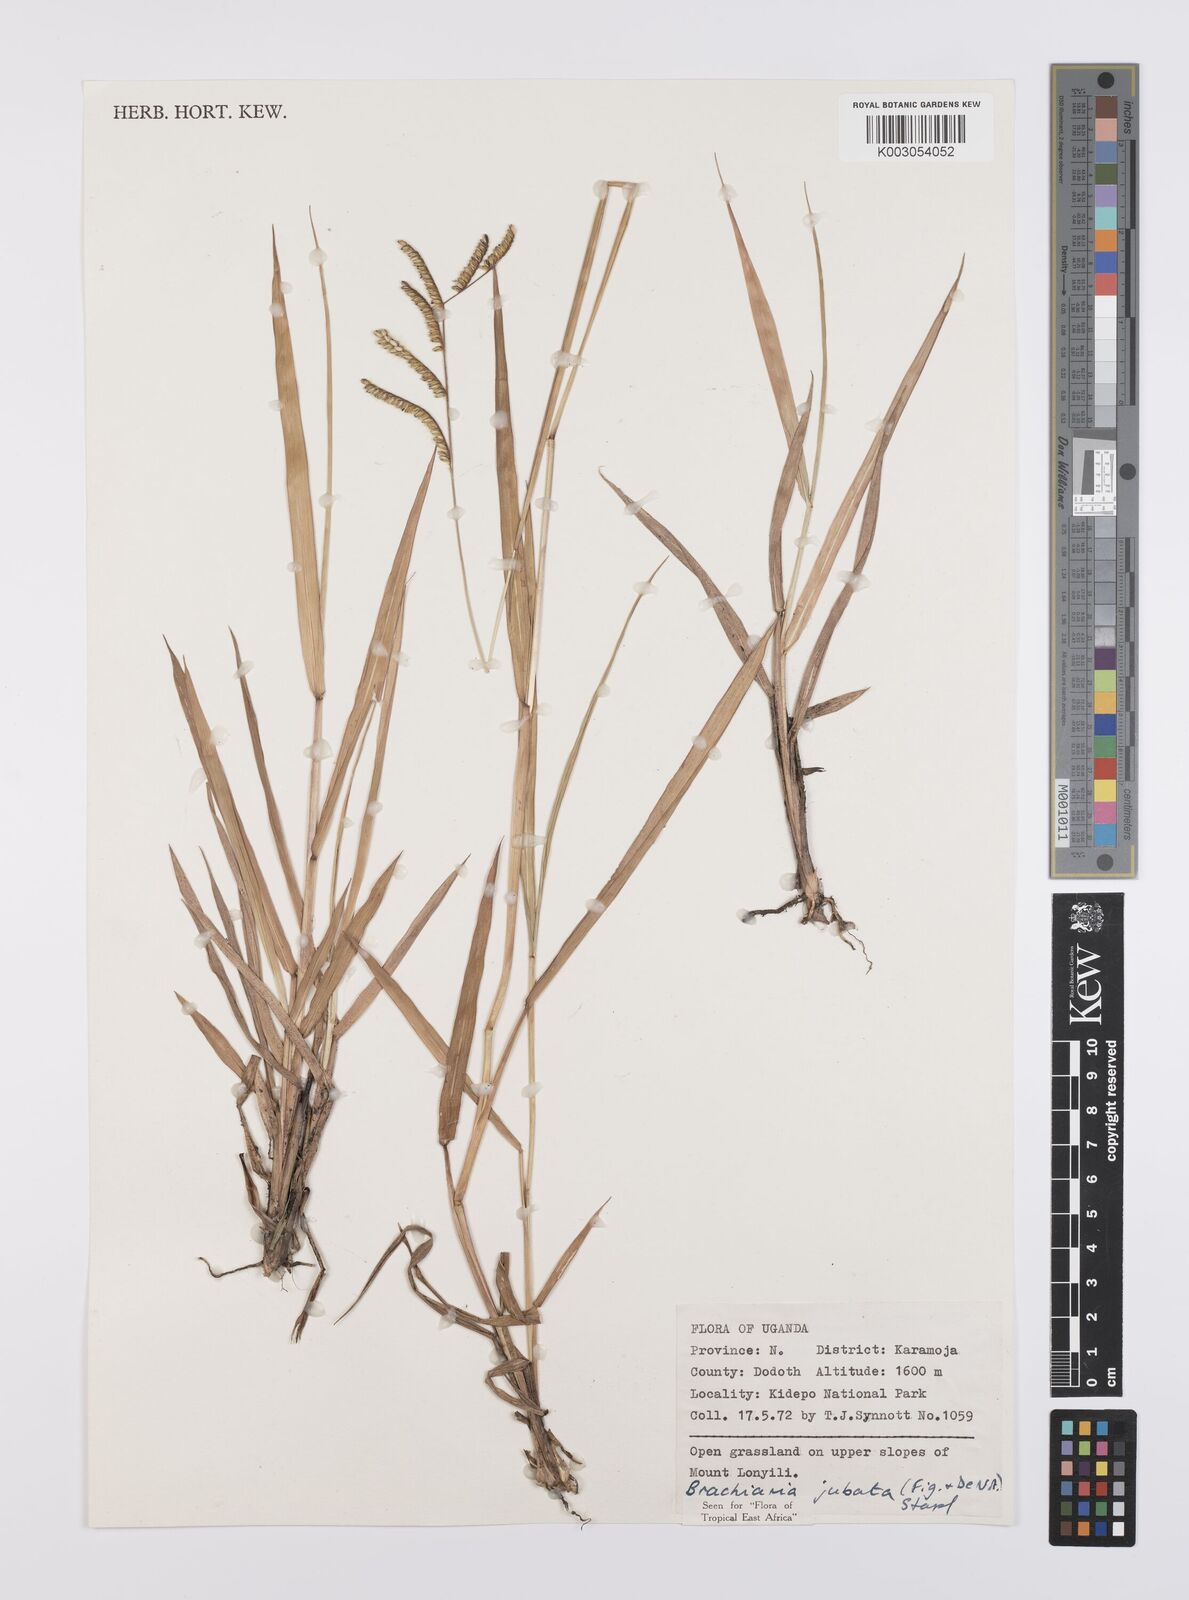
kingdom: Plantae
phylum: Tracheophyta
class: Liliopsida
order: Poales
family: Poaceae
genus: Urochloa
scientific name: Urochloa jubata
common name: Buffalograss
